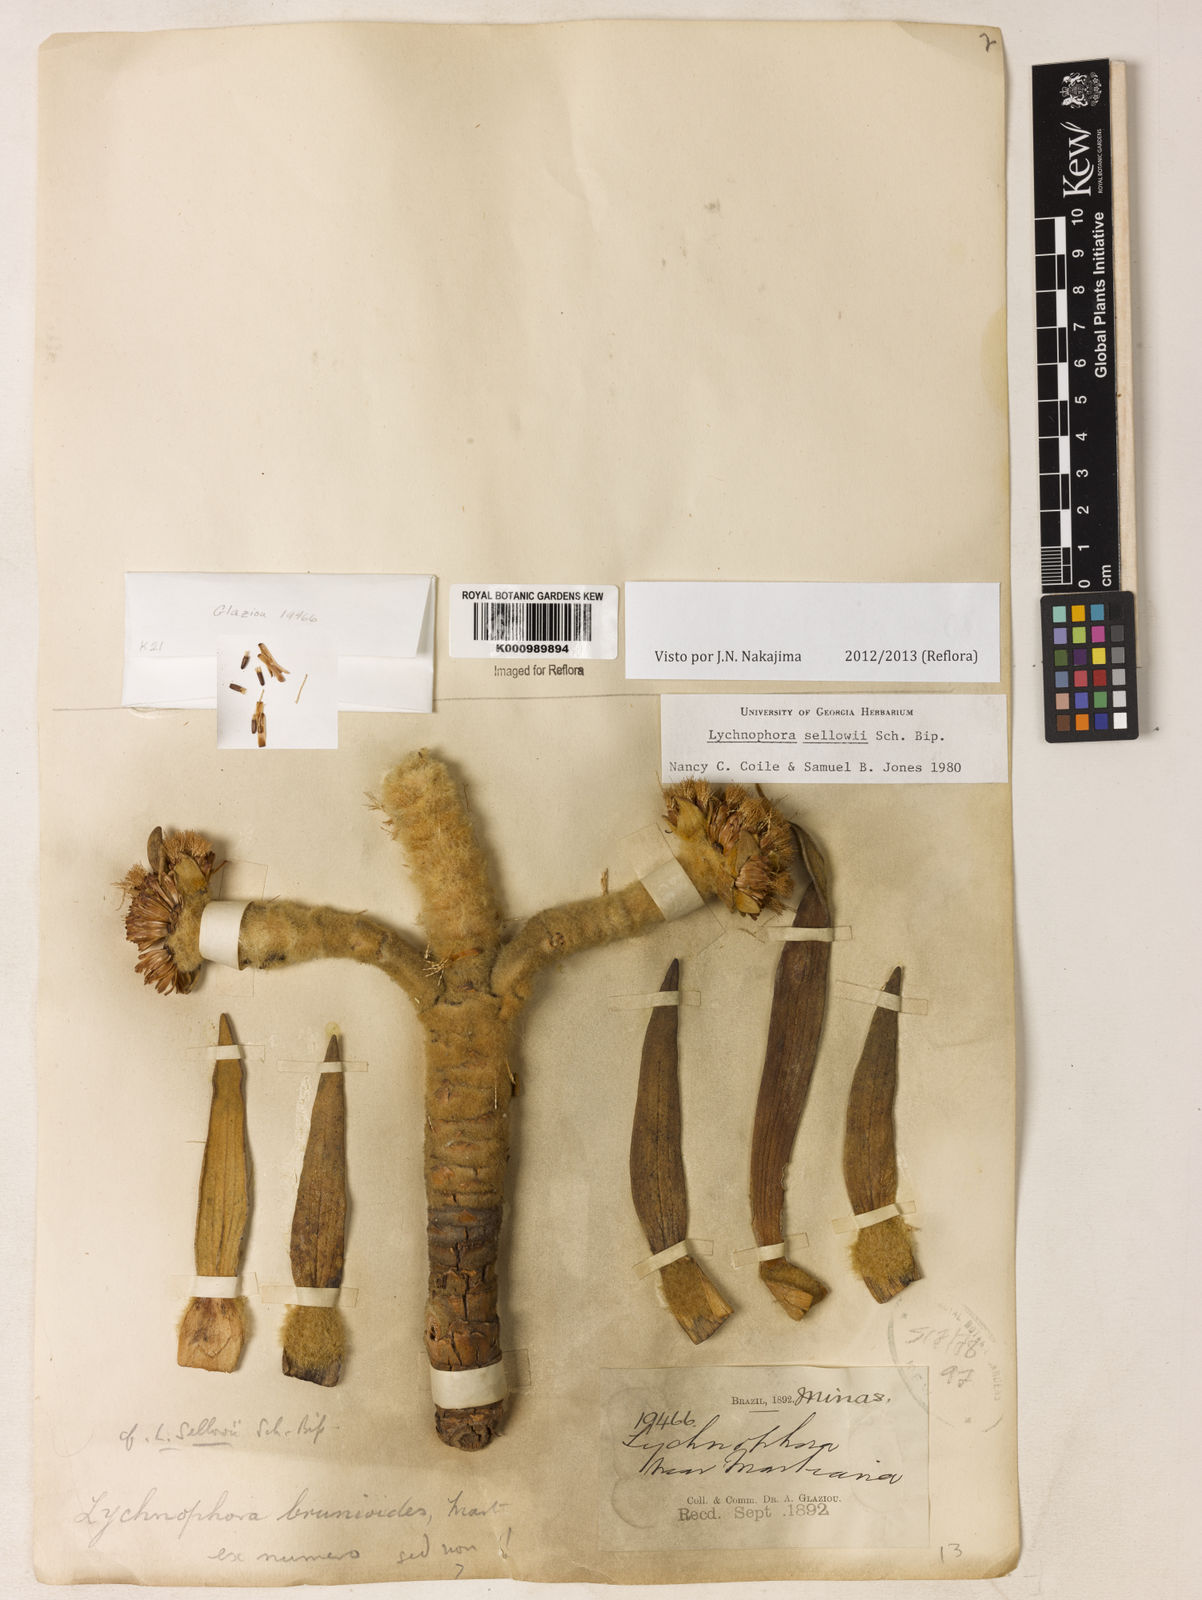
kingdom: Plantae
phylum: Tracheophyta
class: Magnoliopsida
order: Asterales
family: Asteraceae
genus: Lychnophora
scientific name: Lychnophora
